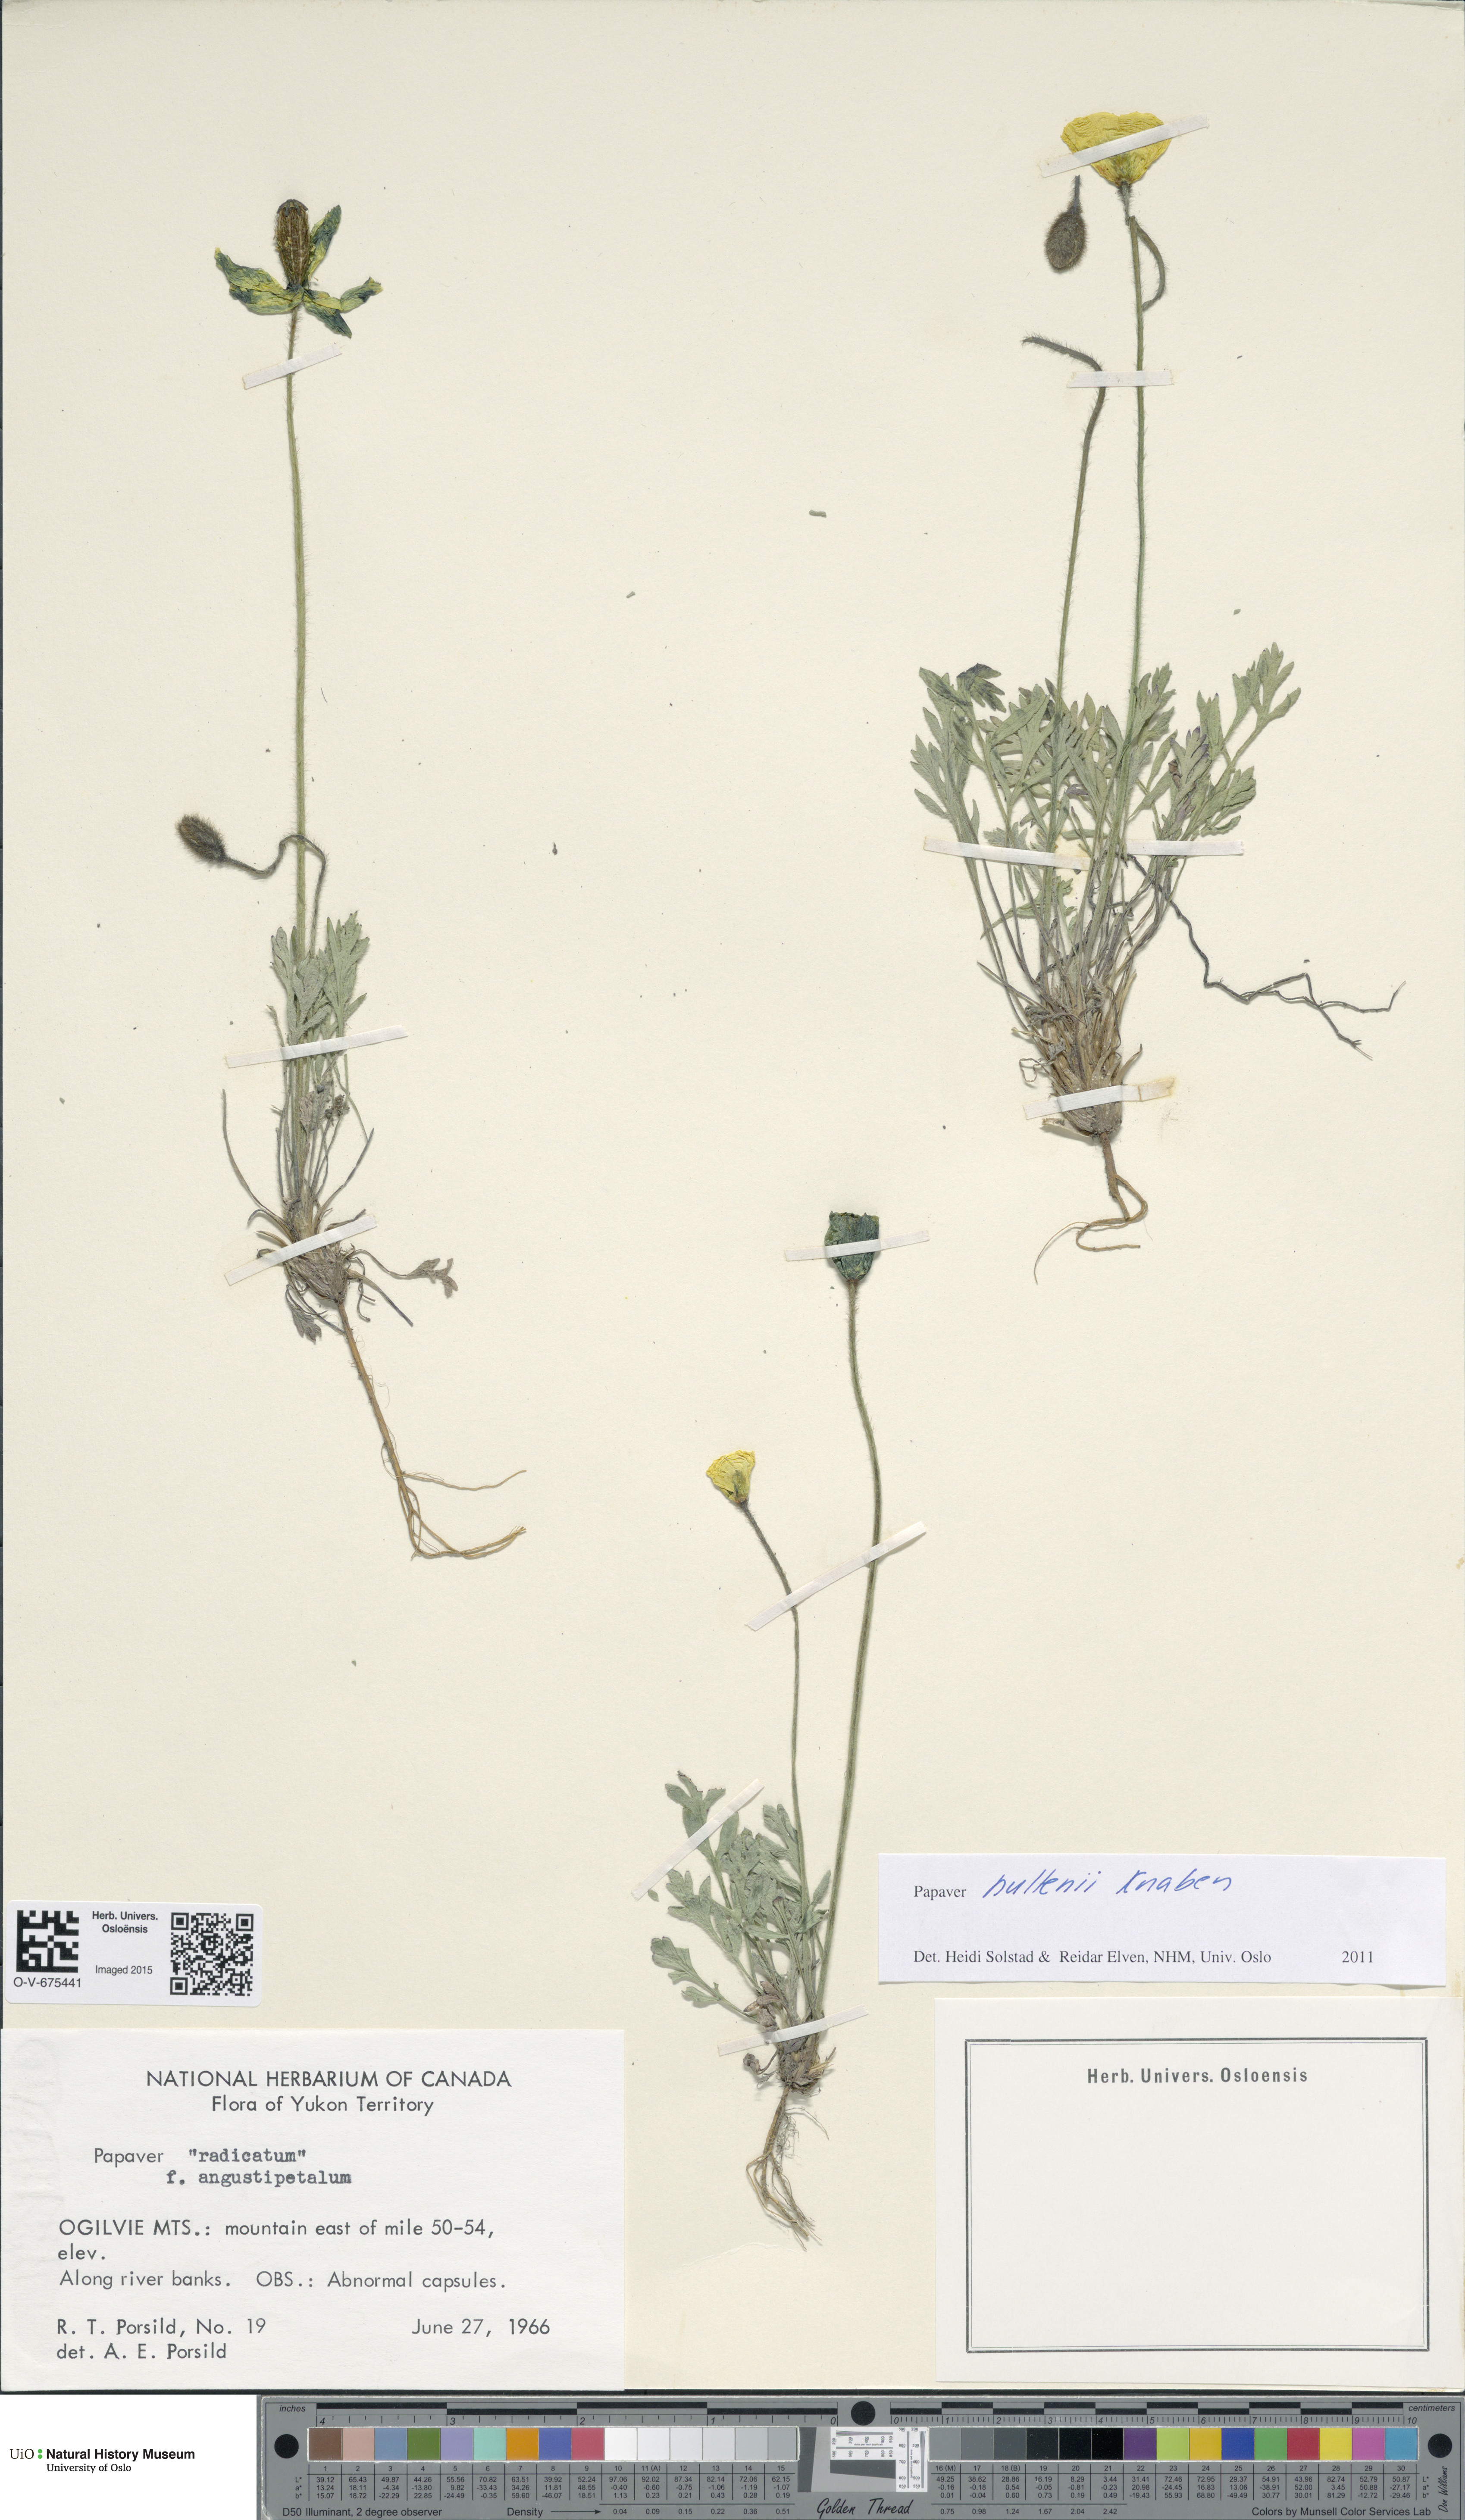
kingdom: Plantae
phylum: Tracheophyta
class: Magnoliopsida
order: Ranunculales
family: Papaveraceae
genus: Papaver
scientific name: Papaver lapponicum
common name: Lapland poppy
